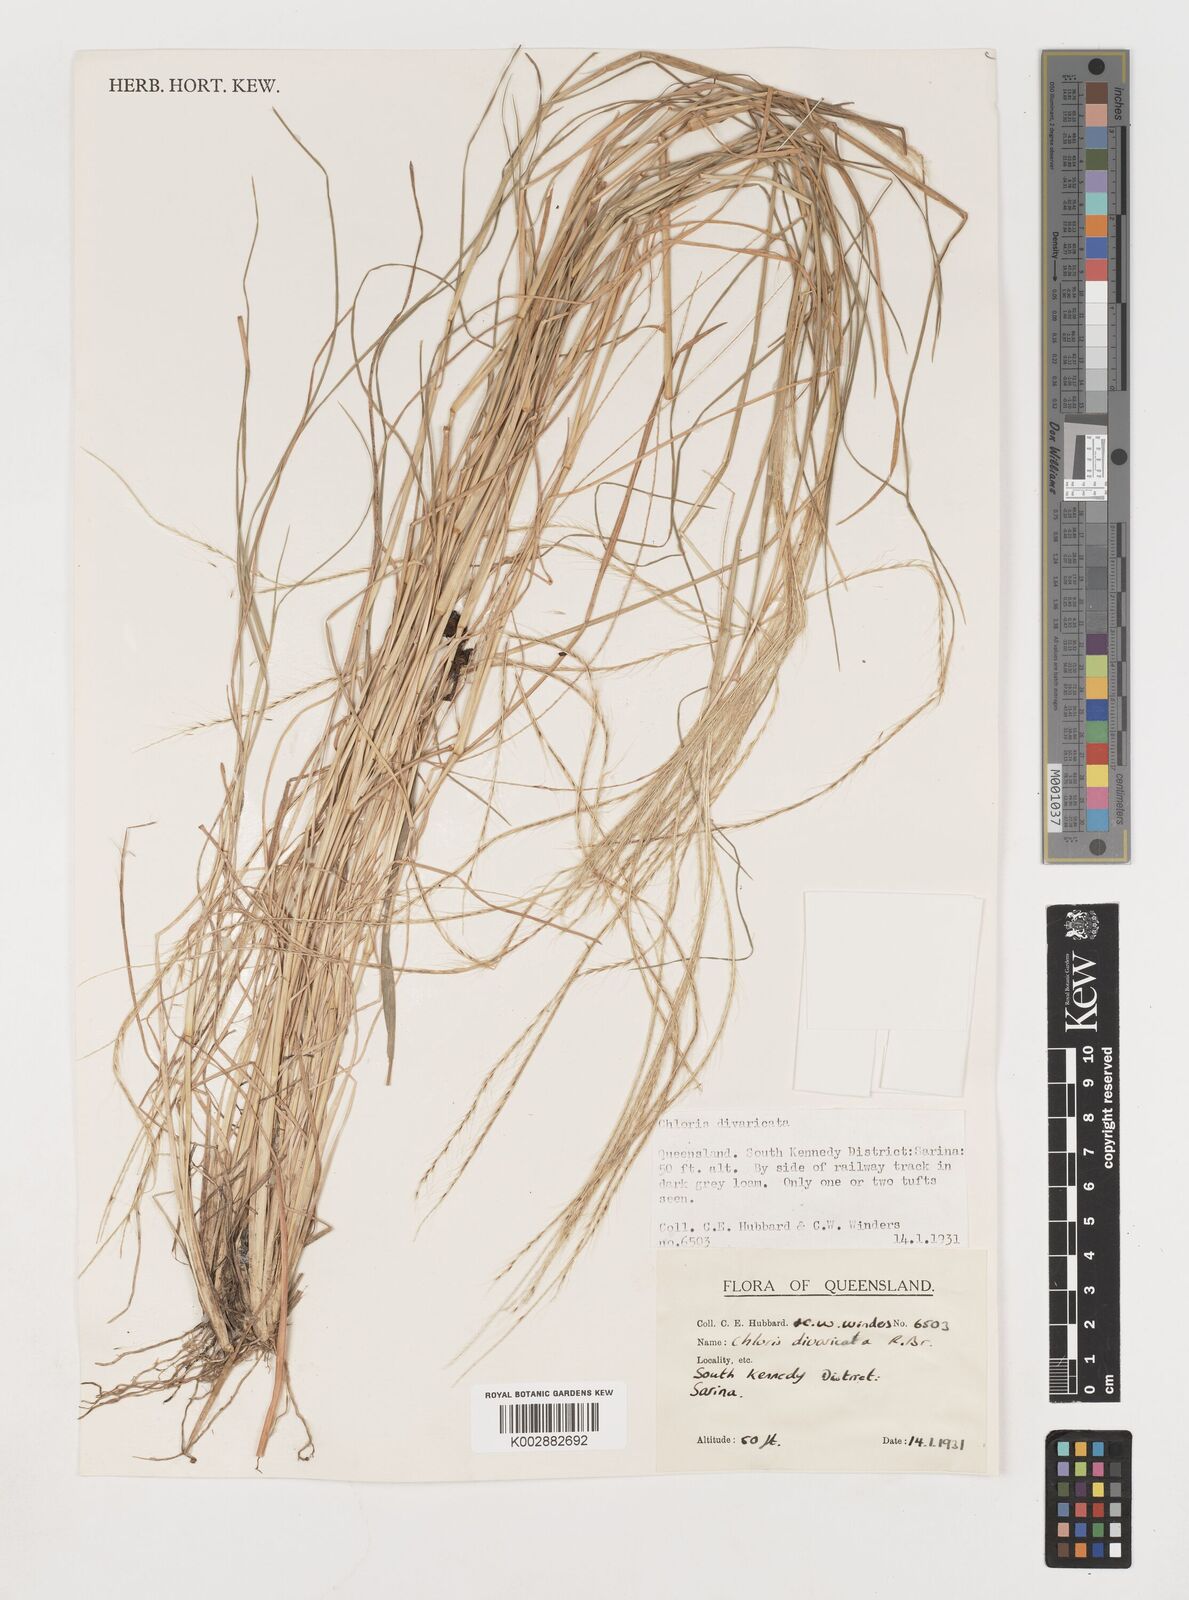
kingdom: Plantae
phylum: Tracheophyta
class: Liliopsida
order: Poales
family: Poaceae
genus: Chloris
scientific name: Chloris divaricata
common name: Spreading windmill grass
